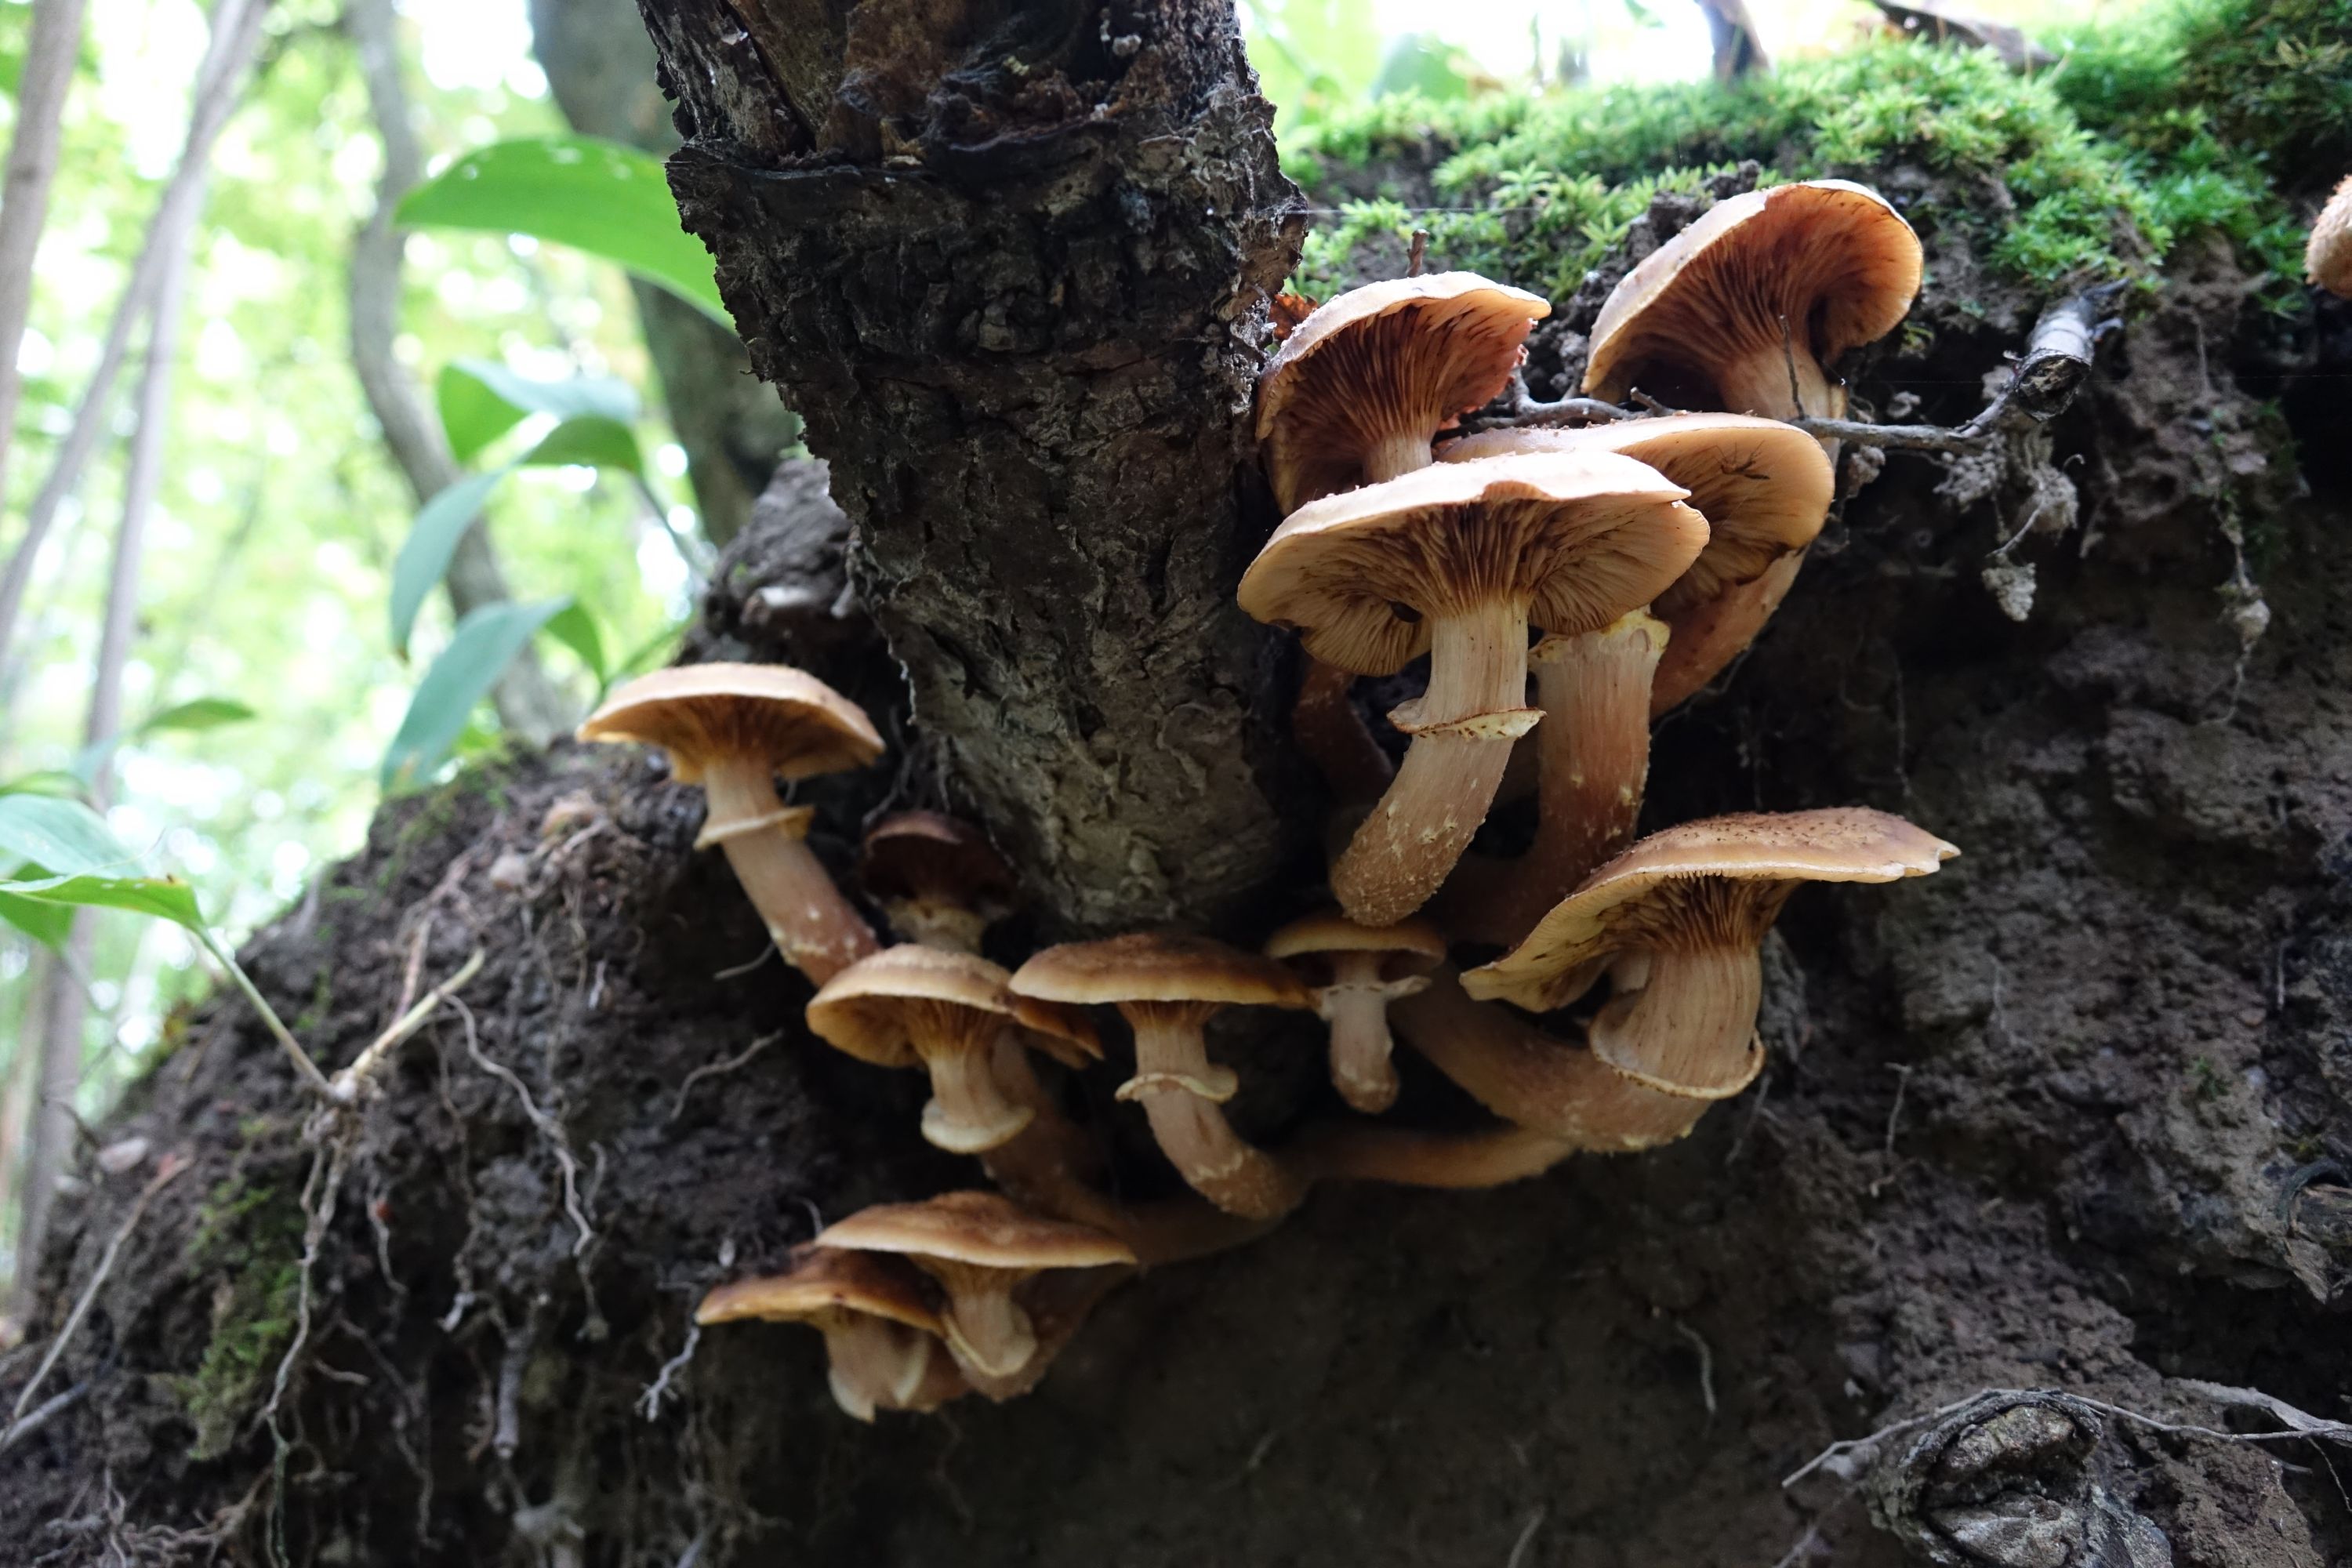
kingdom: Fungi
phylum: Basidiomycota
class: Agaricomycetes
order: Agaricales
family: Physalacriaceae
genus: Armillaria
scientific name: Armillaria borealis
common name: Northern honey fungus
